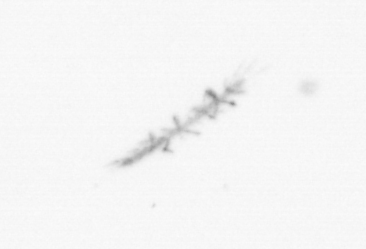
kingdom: Chromista
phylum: Ochrophyta
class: Bacillariophyceae
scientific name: Bacillariophyceae
